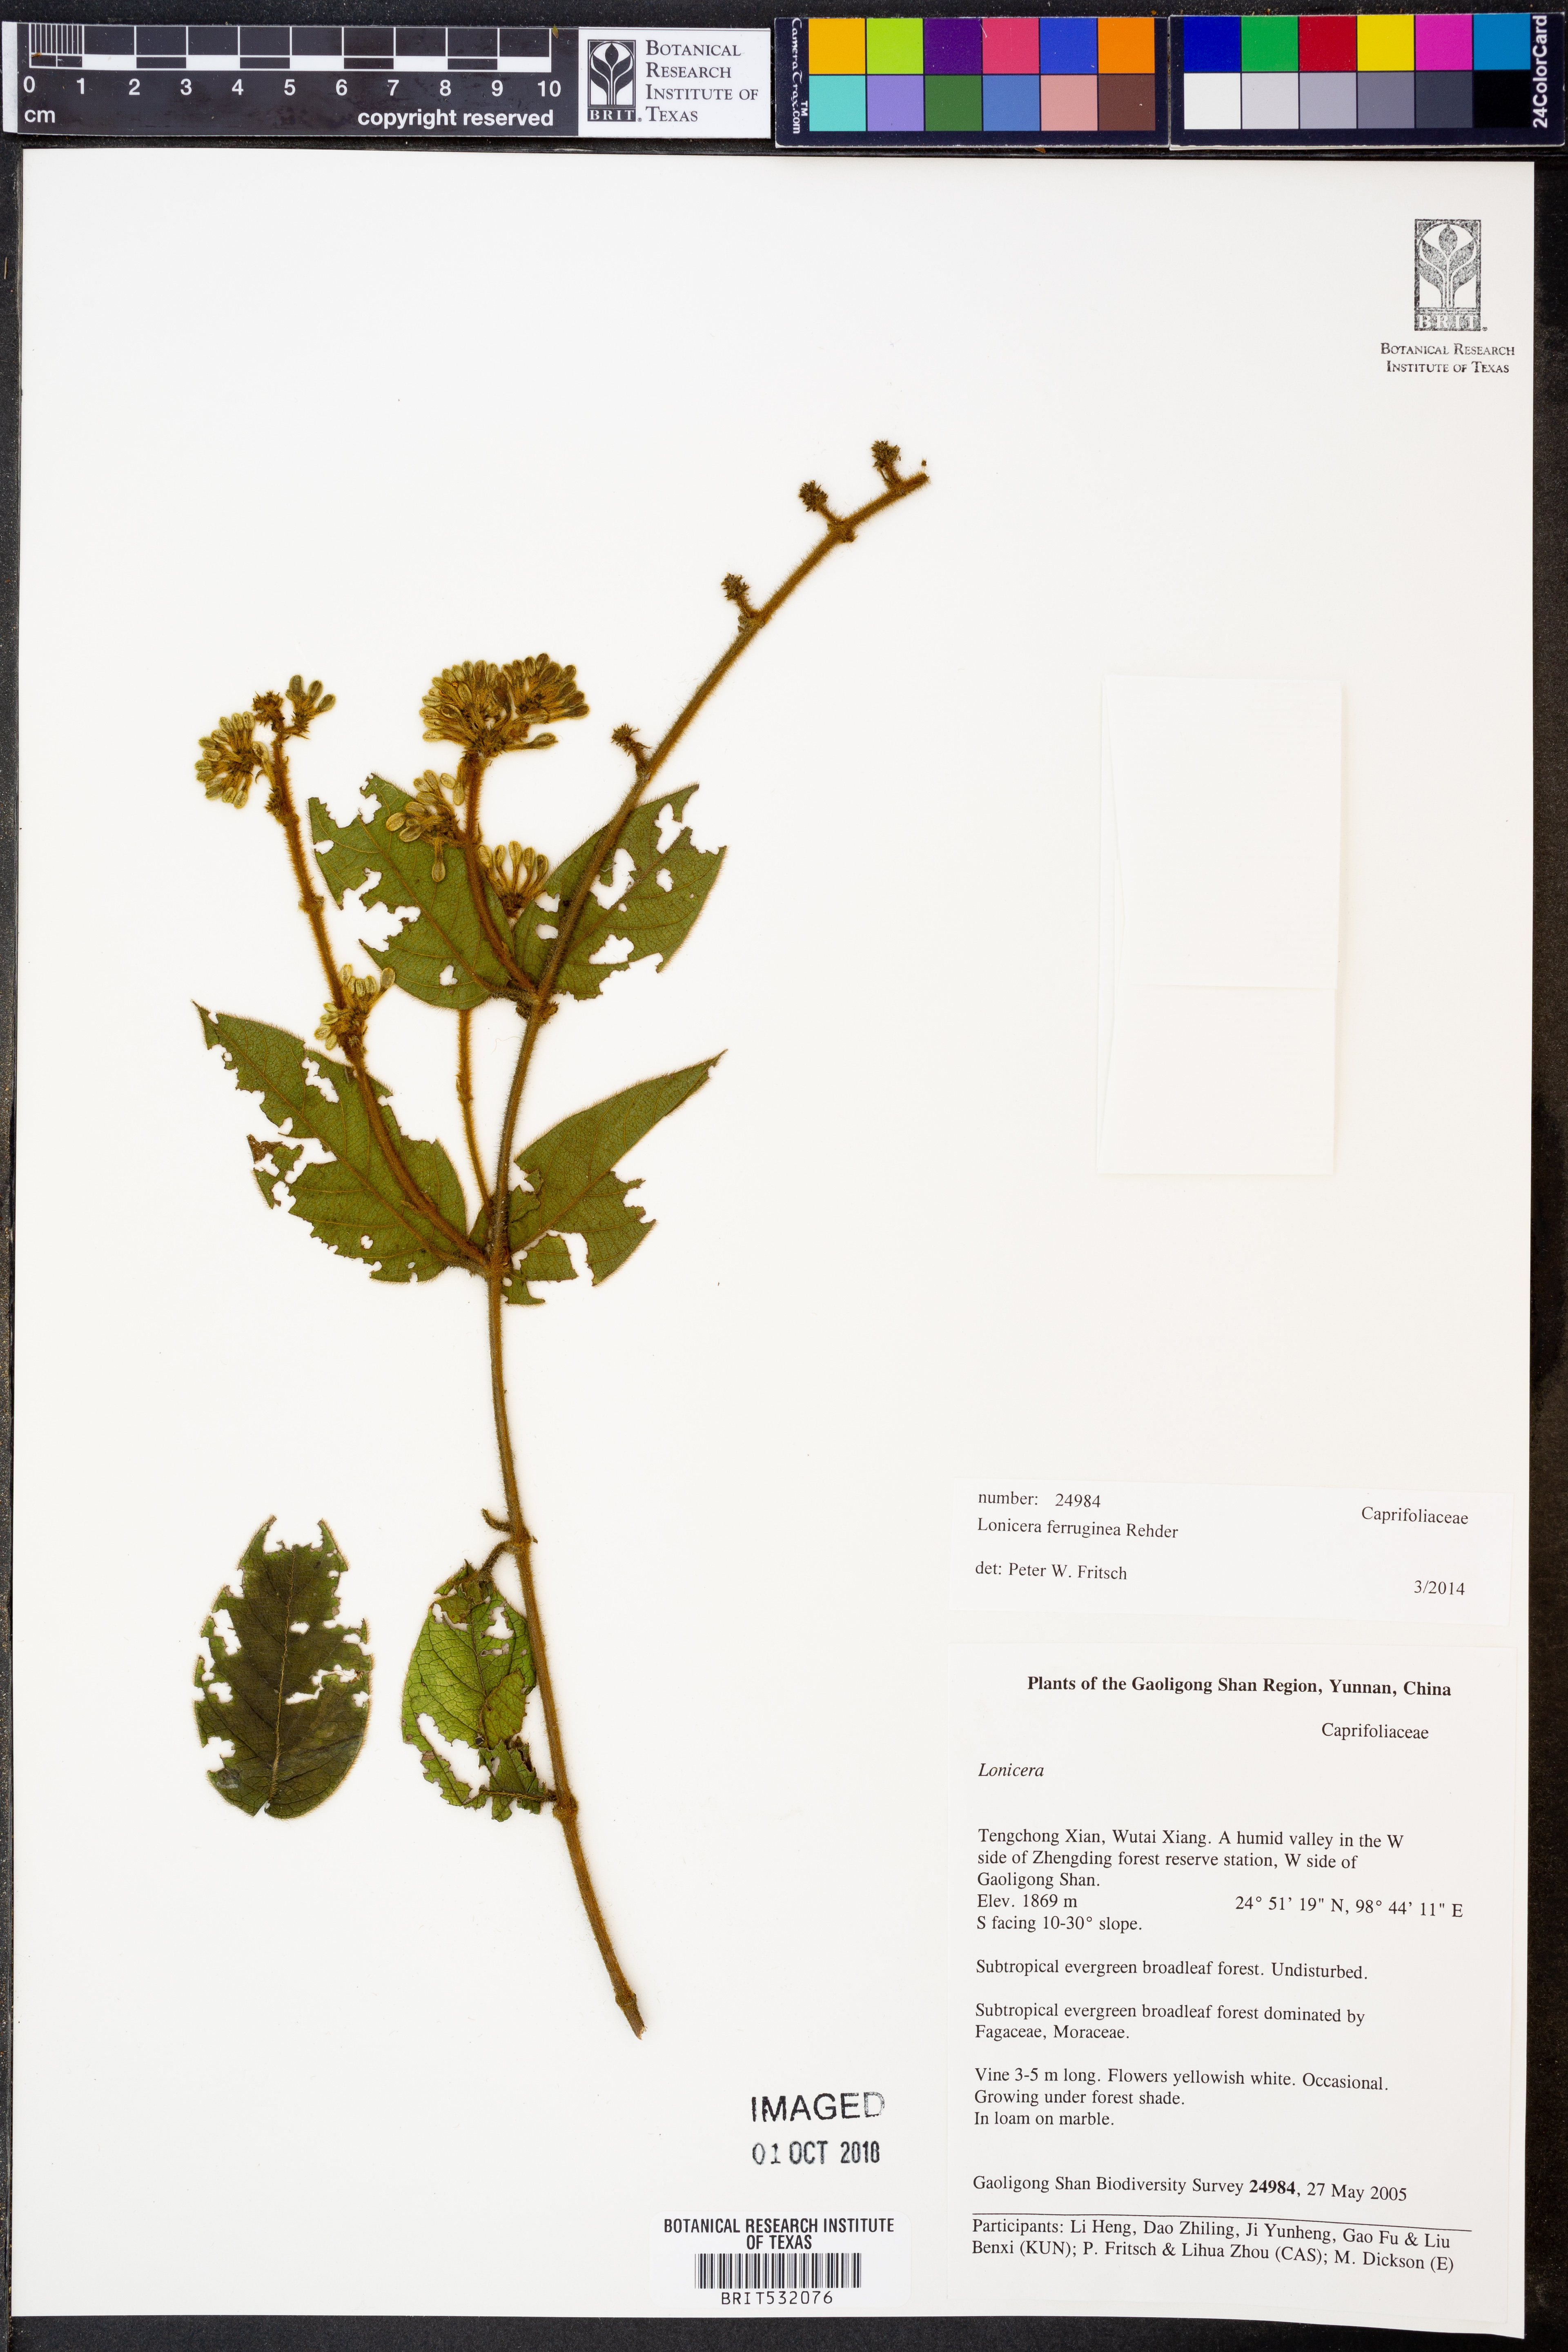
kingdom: Plantae
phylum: Tracheophyta
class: Magnoliopsida
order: Dipsacales
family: Caprifoliaceae
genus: Lonicera
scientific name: Lonicera ferruginea
